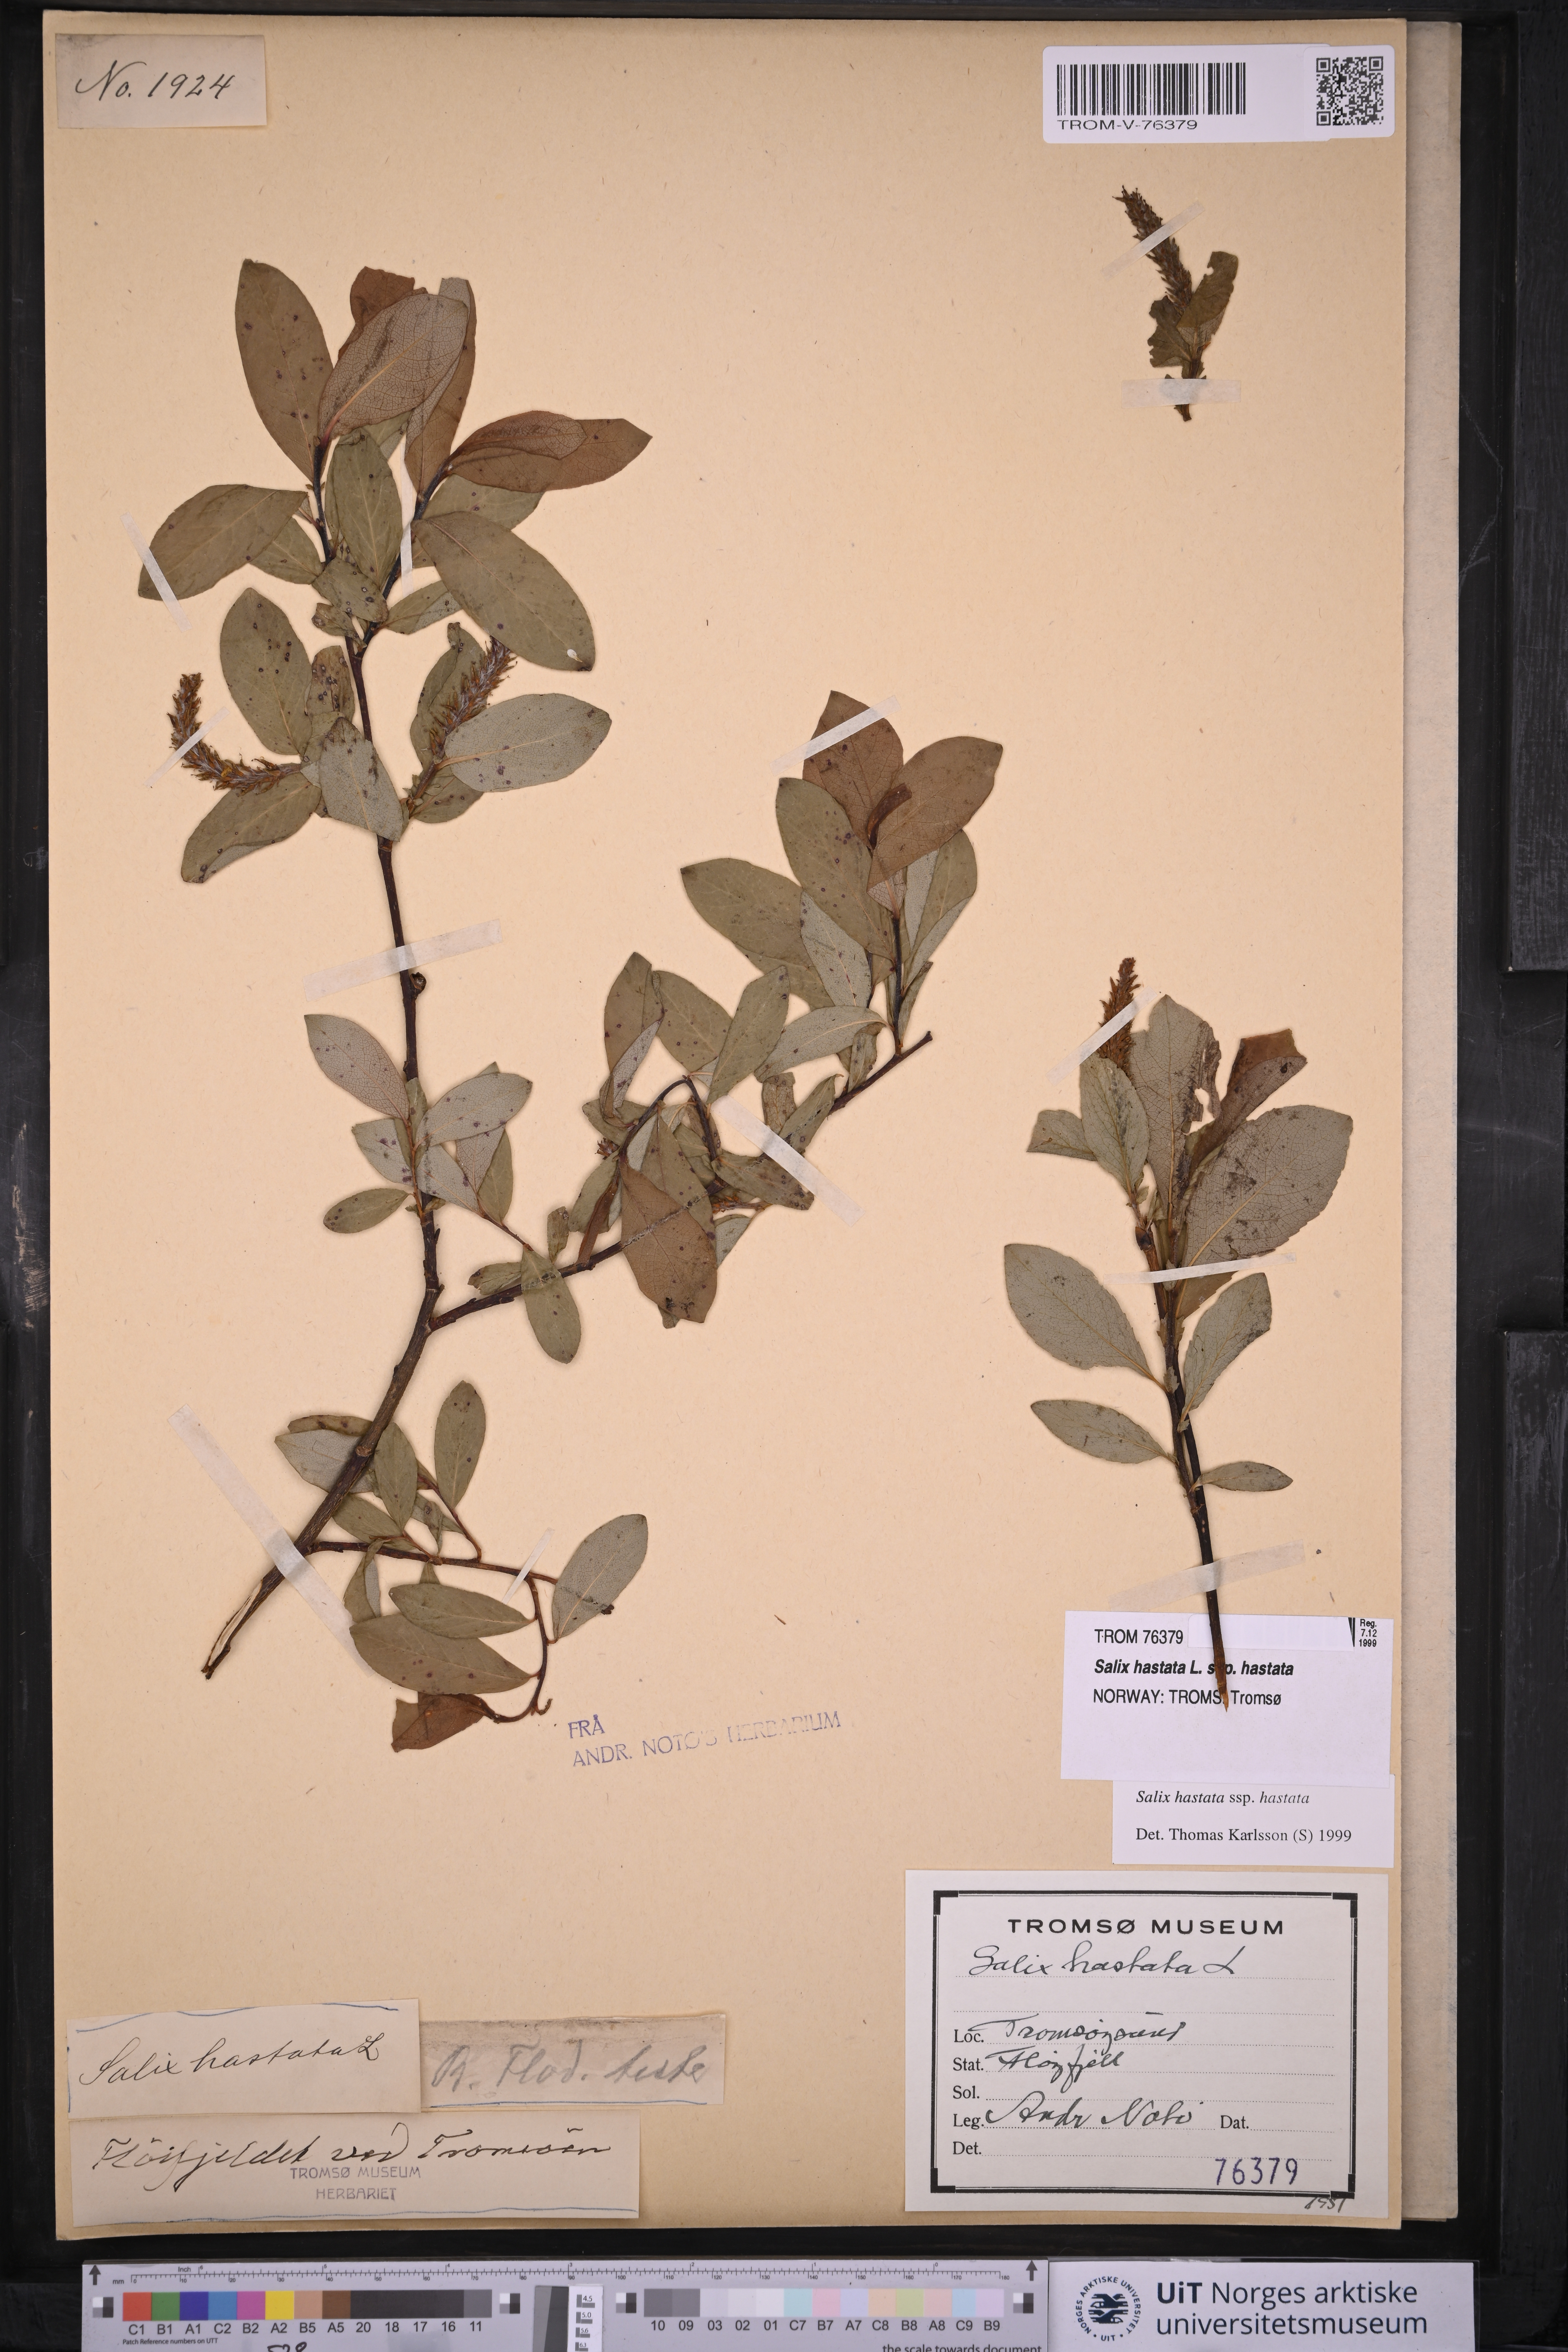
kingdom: Plantae
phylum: Tracheophyta
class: Magnoliopsida
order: Malpighiales
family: Salicaceae
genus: Salix
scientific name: Salix hastata
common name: Halberd willow
